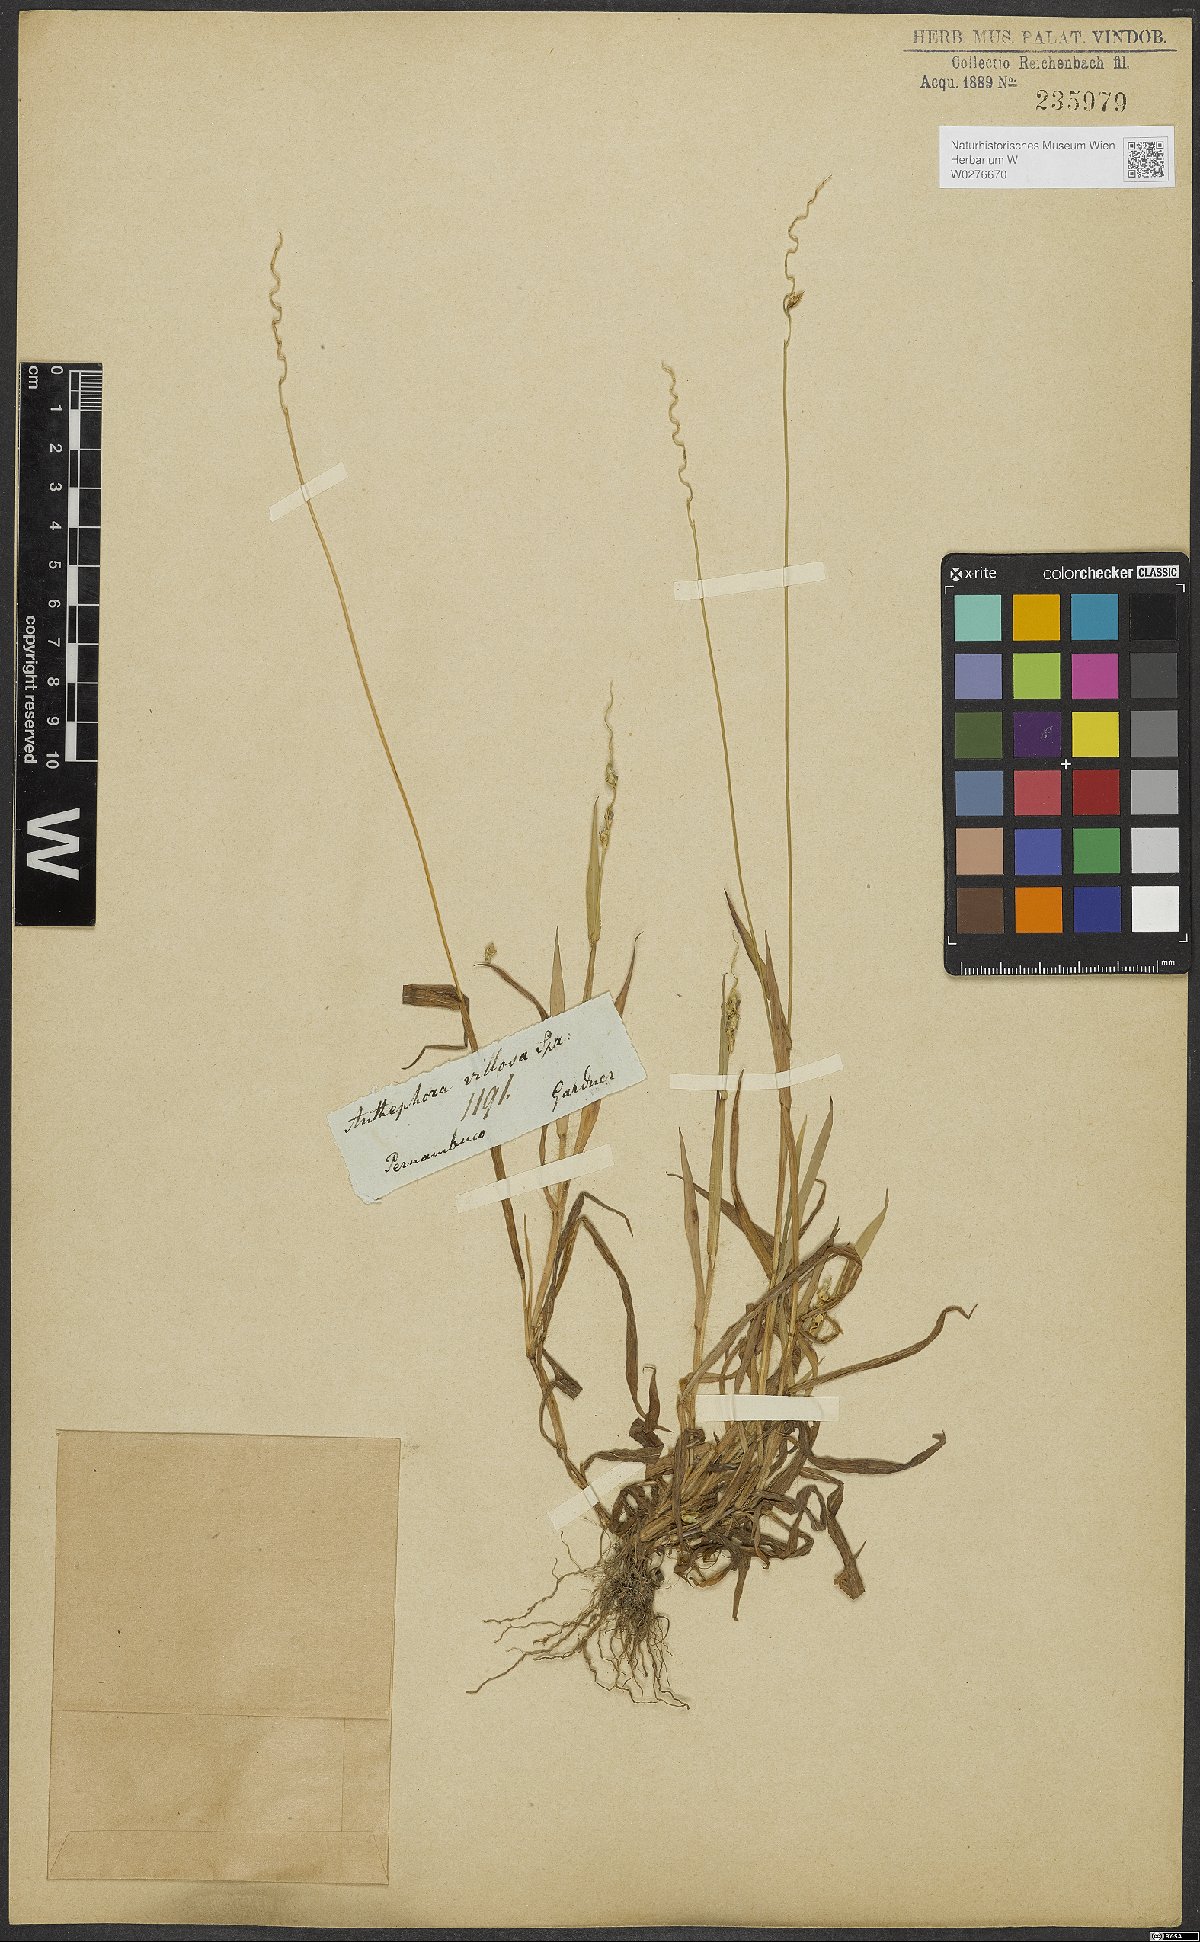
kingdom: Plantae
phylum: Tracheophyta
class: Liliopsida
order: Poales
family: Poaceae
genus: Anthephora
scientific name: Anthephora hermaphrodita
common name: Oldfield grass
